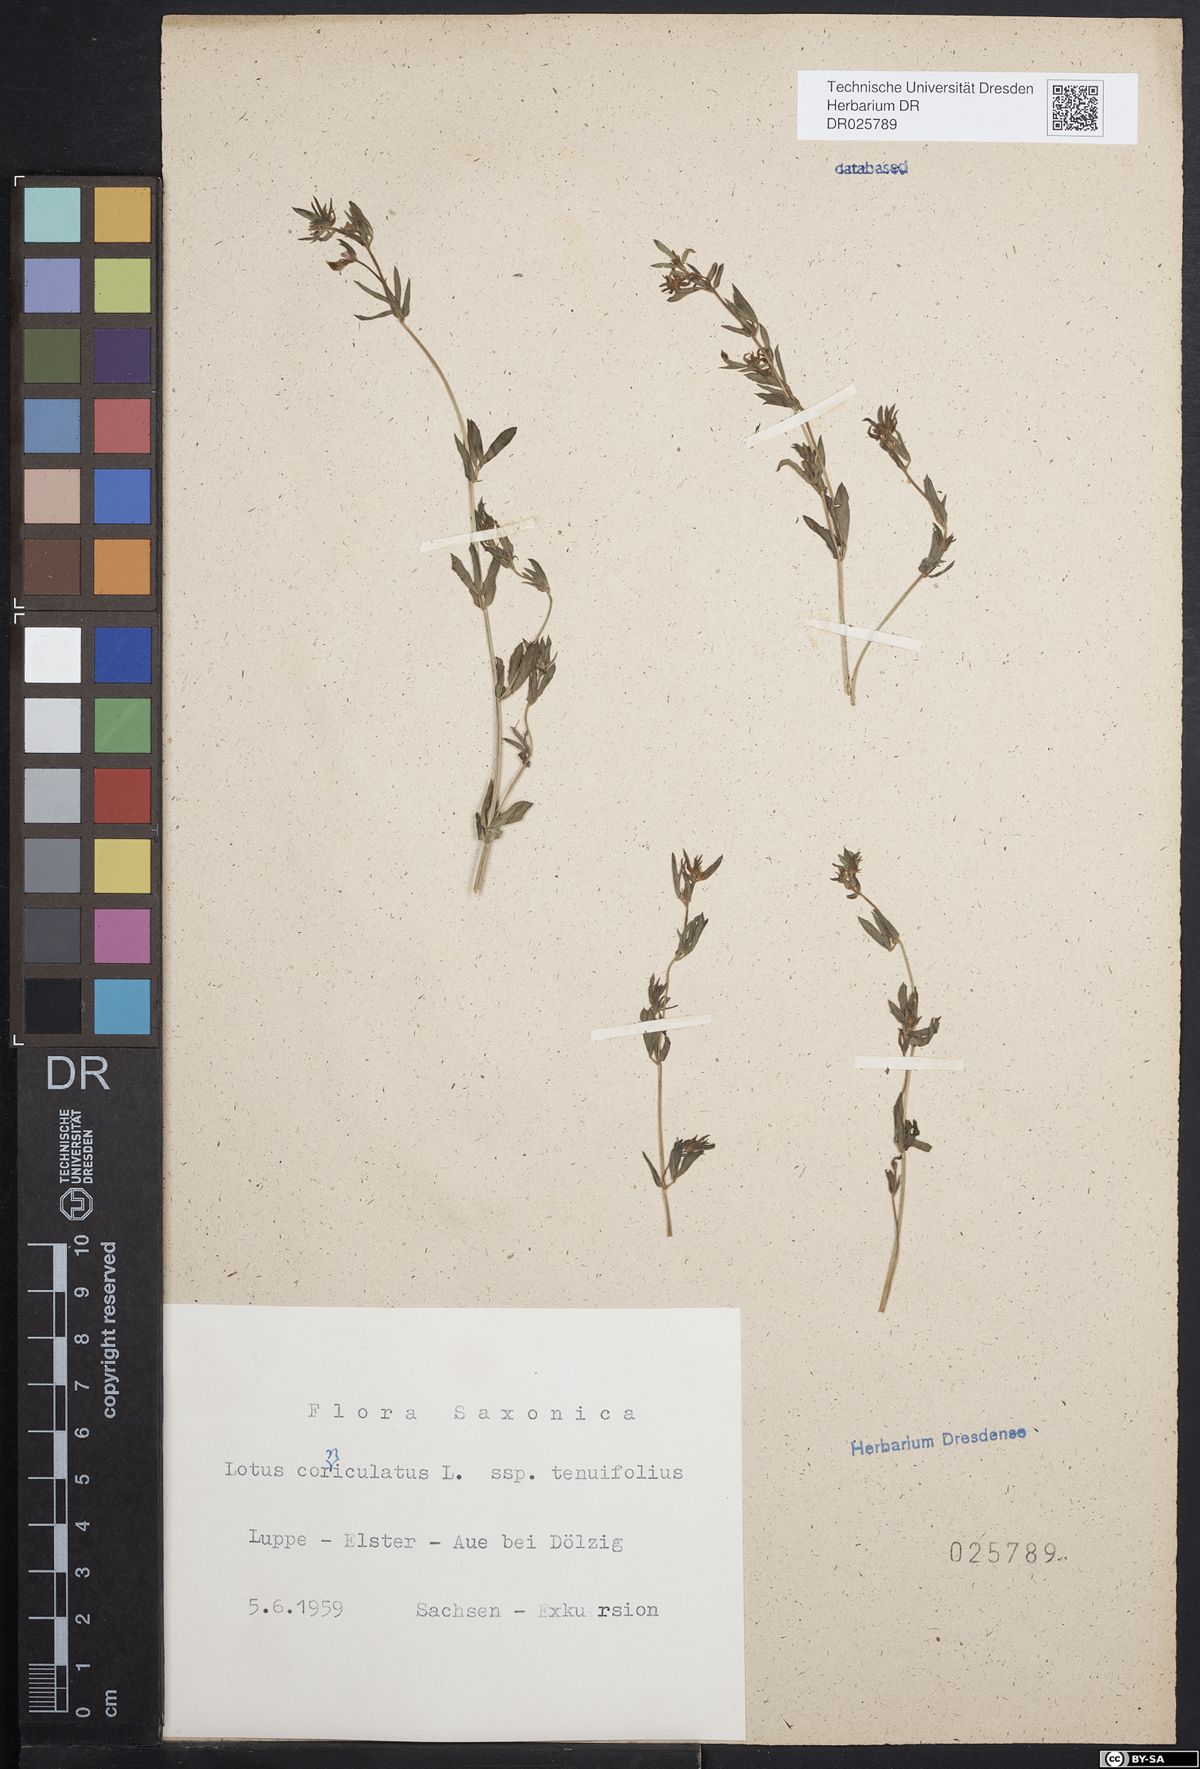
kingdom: Plantae
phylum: Tracheophyta
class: Magnoliopsida
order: Fabales
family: Fabaceae
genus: Lotus
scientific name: Lotus corniculatus
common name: Common bird's-foot-trefoil
